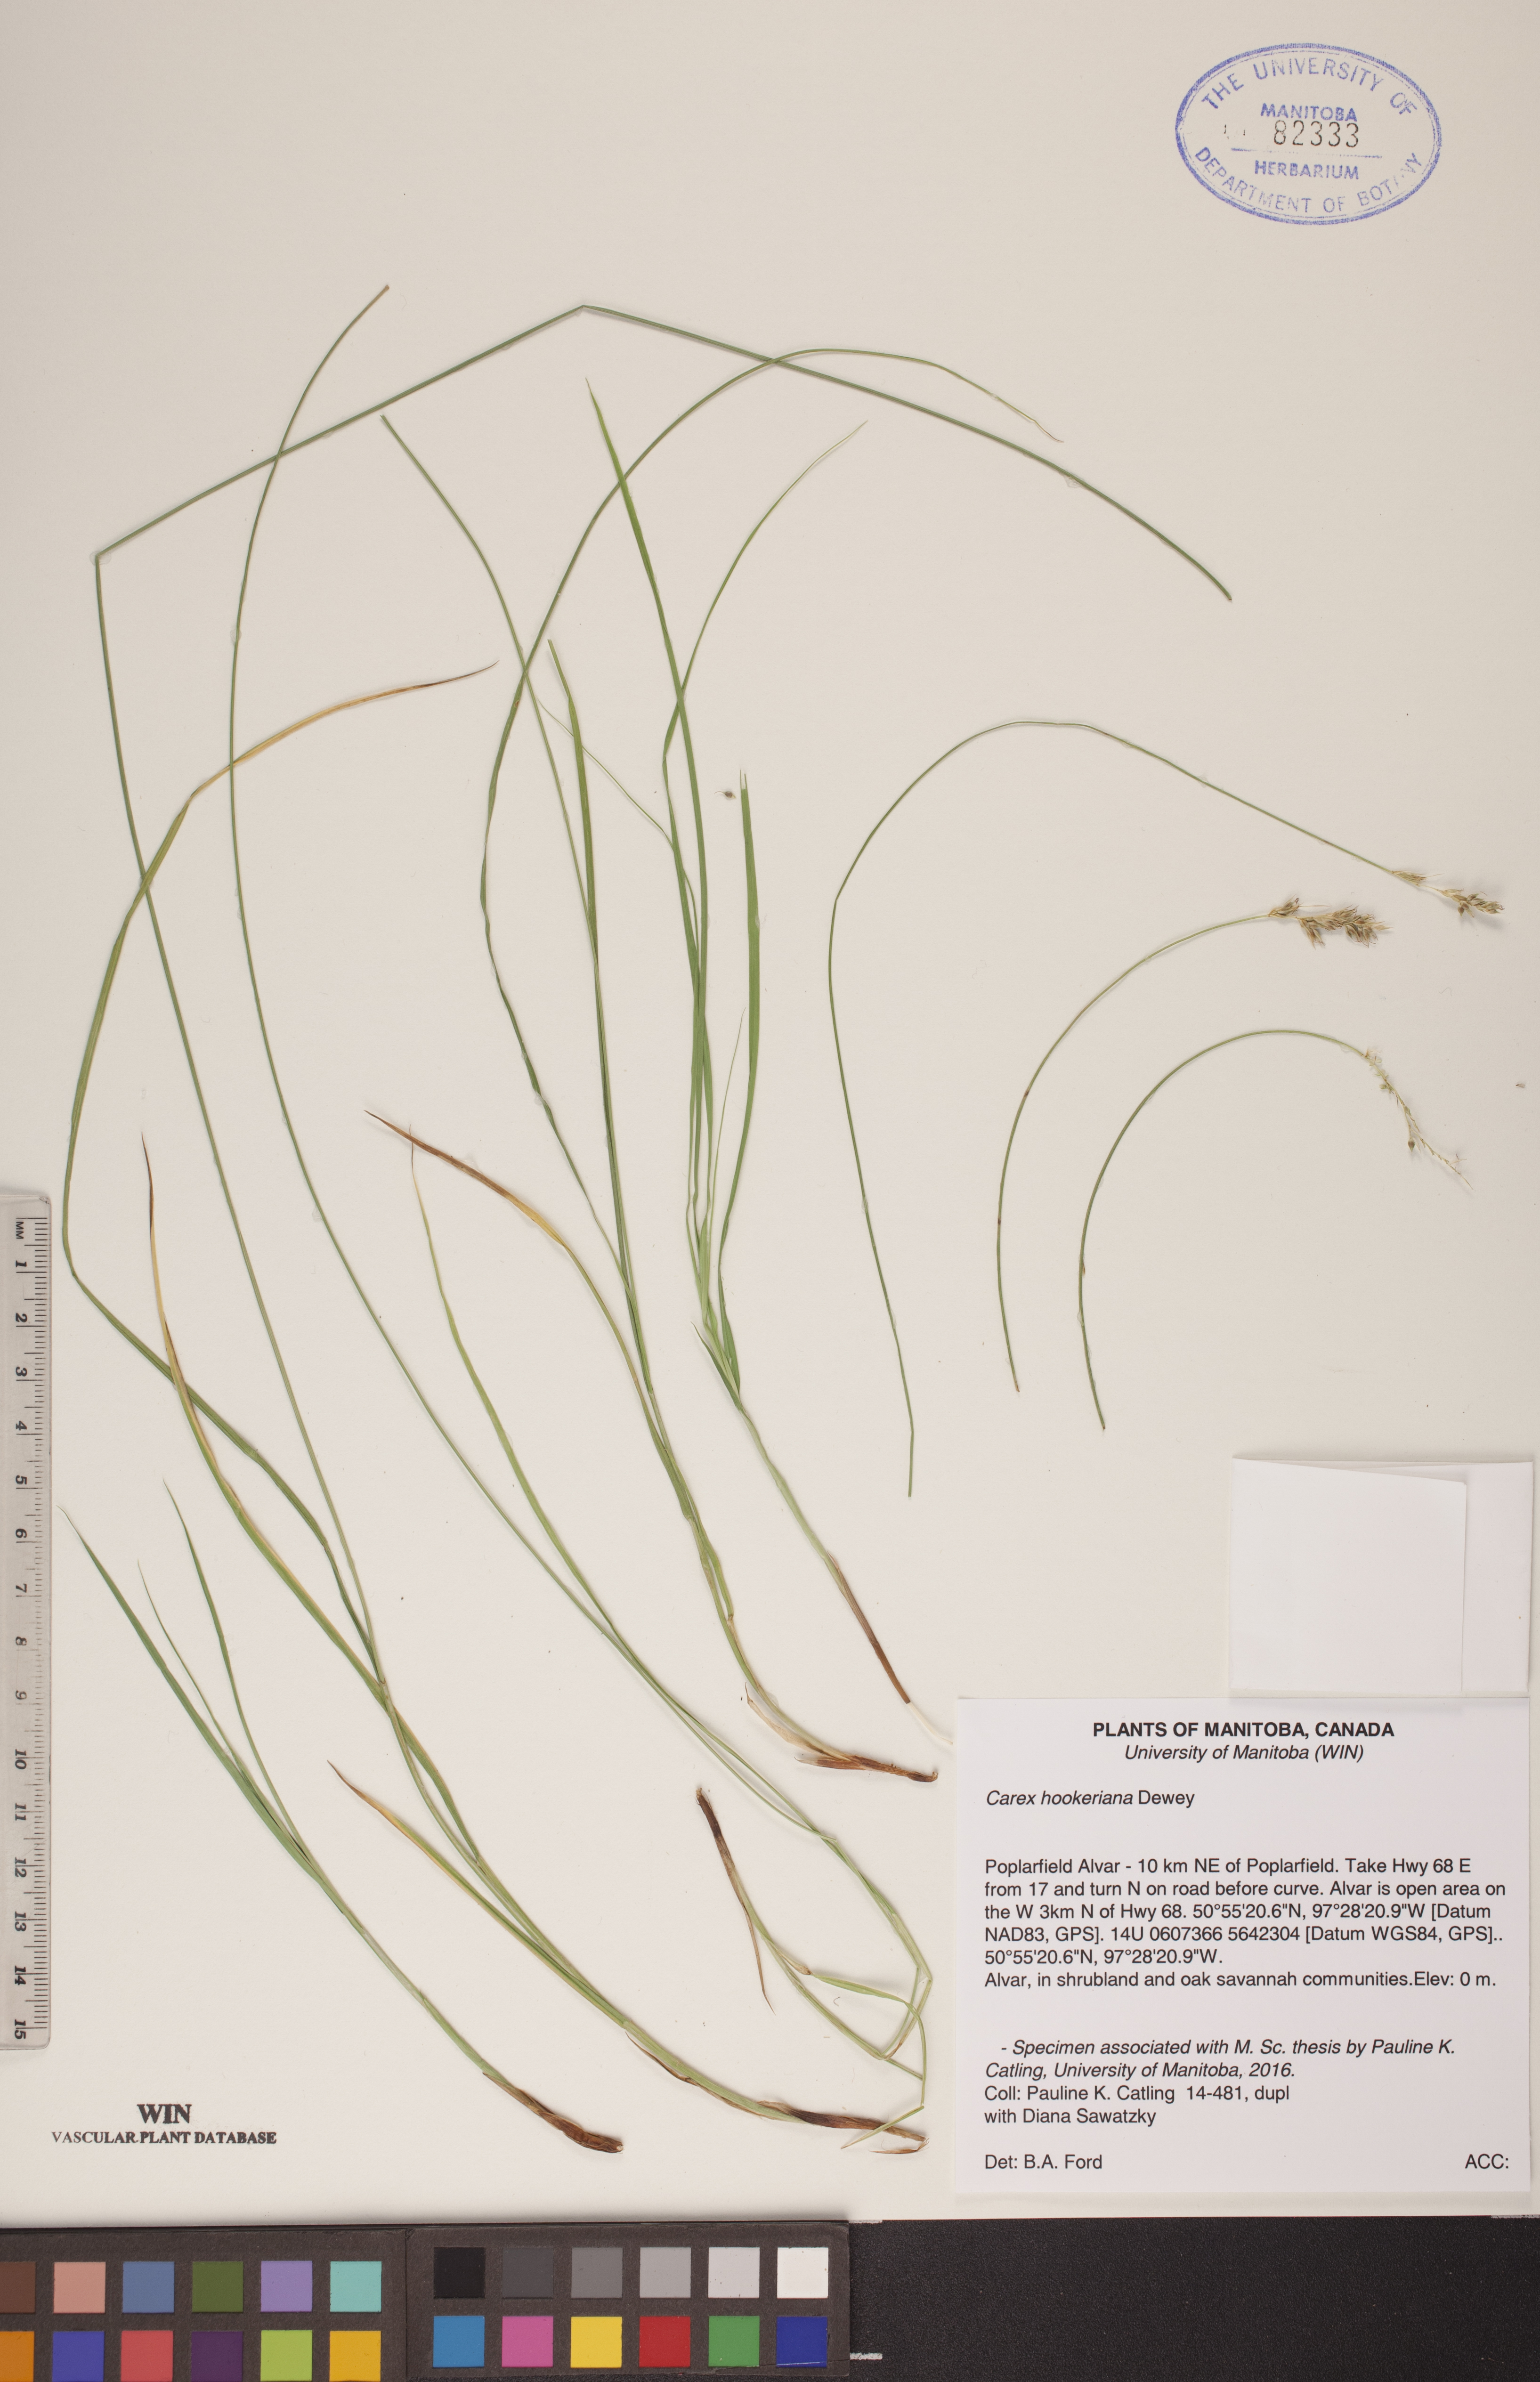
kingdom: Plantae
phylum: Tracheophyta
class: Liliopsida
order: Poales
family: Cyperaceae
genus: Carex
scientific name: Carex hookeriana
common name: Hooker's sedge
